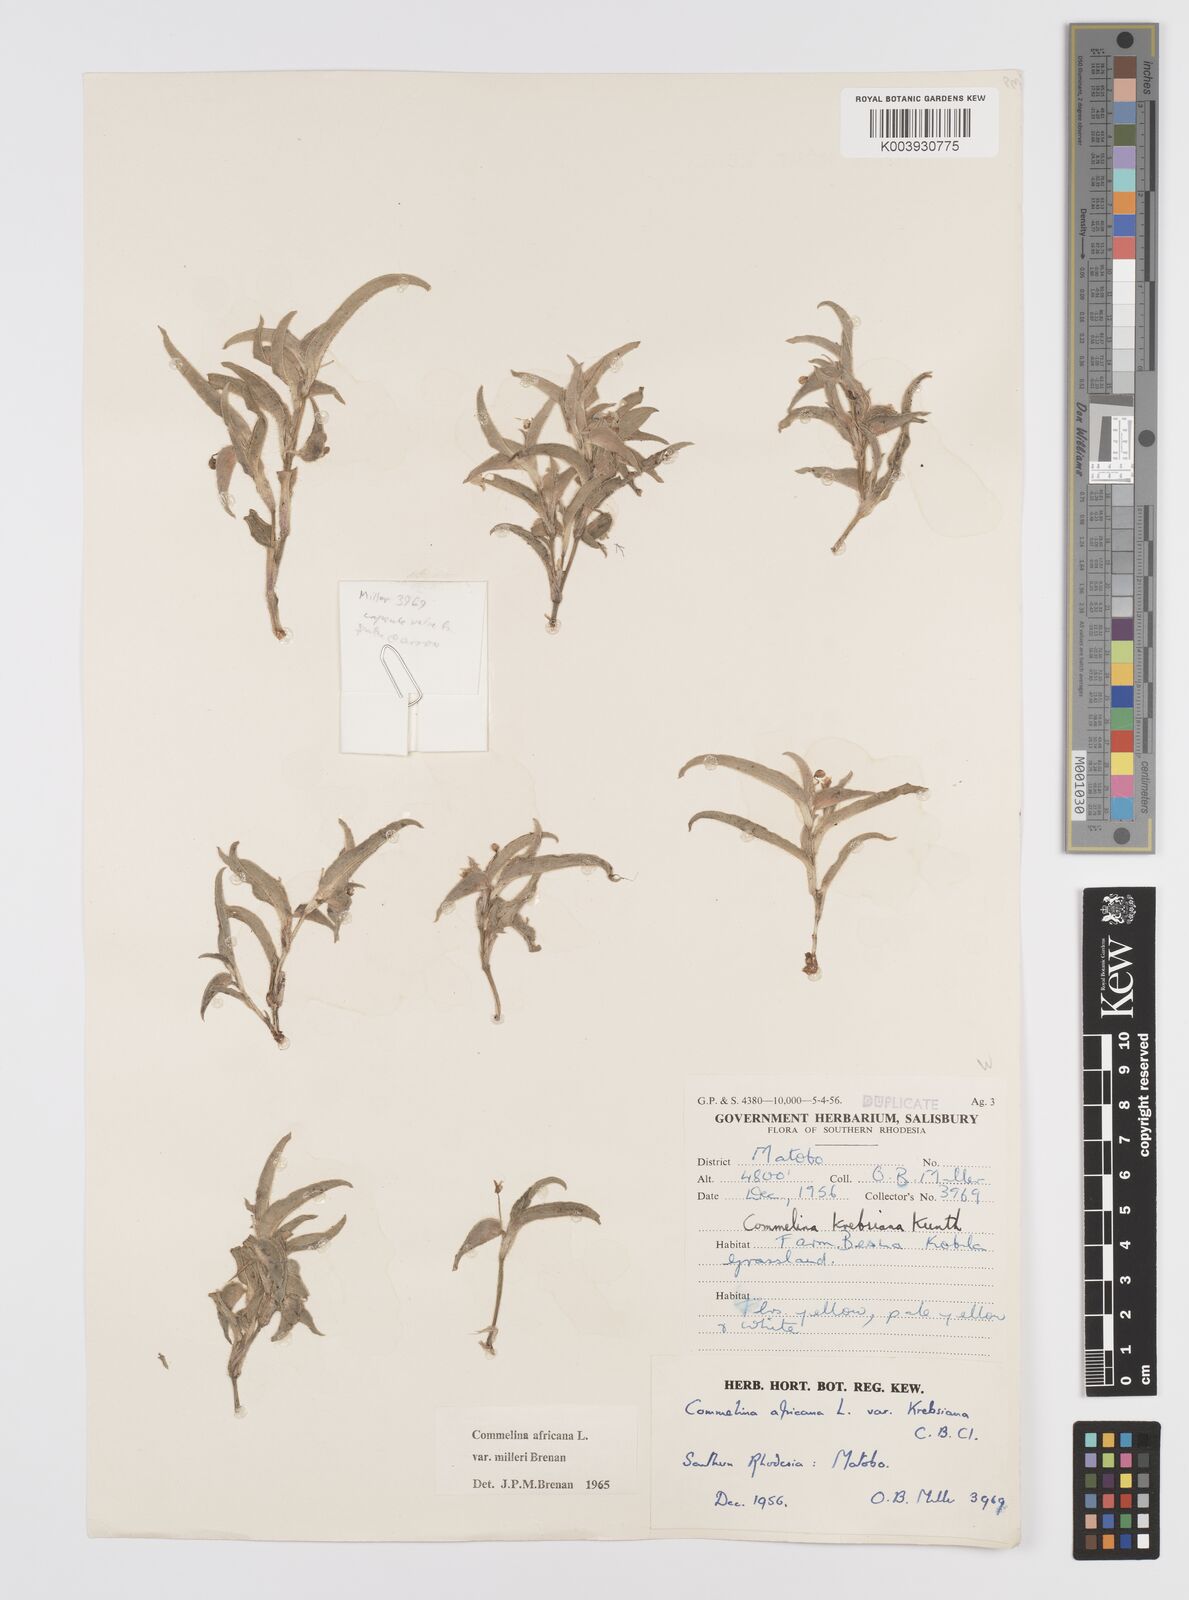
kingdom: Plantae
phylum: Tracheophyta
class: Liliopsida
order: Commelinales
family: Commelinaceae
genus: Commelina
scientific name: Commelina africana
